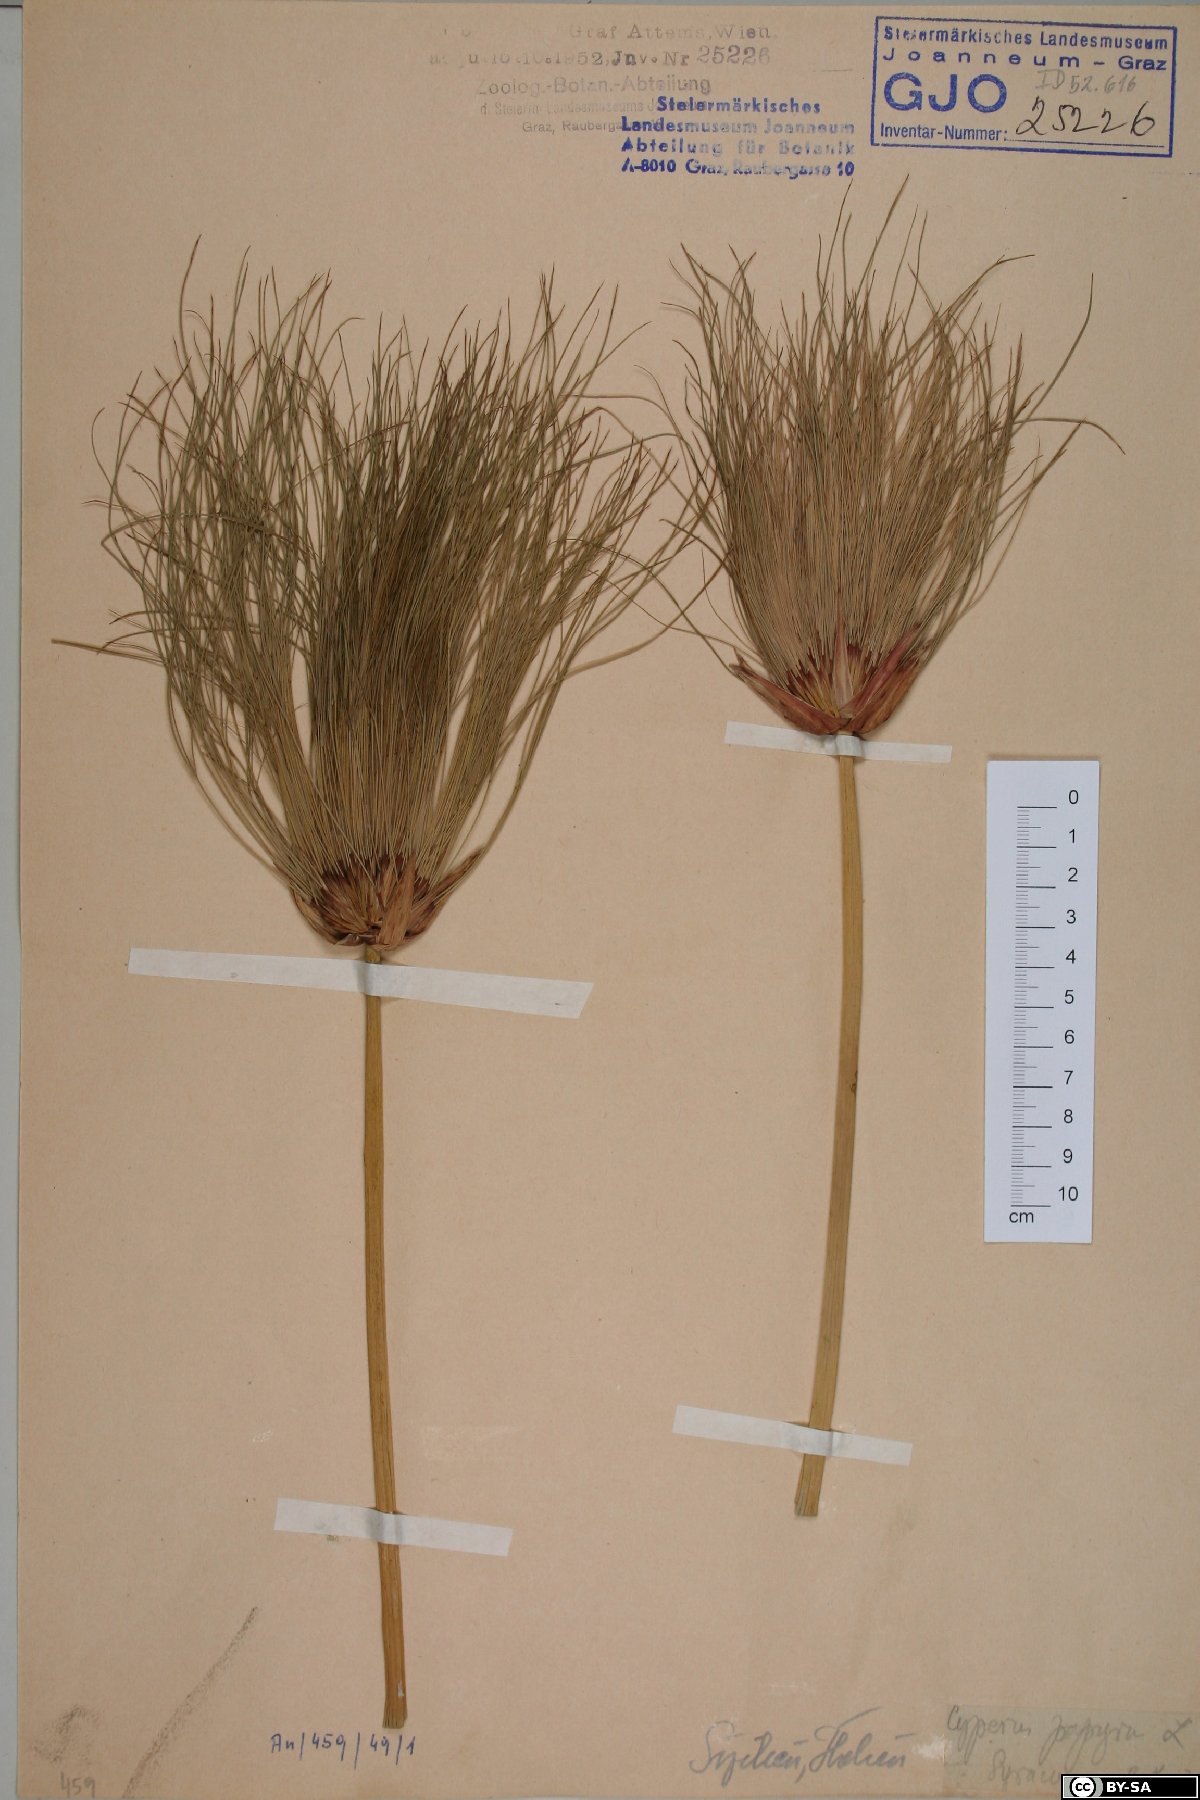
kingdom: Plantae
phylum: Tracheophyta
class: Liliopsida
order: Poales
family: Cyperaceae
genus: Cyperus
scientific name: Cyperus papyrus
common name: Papyrus
